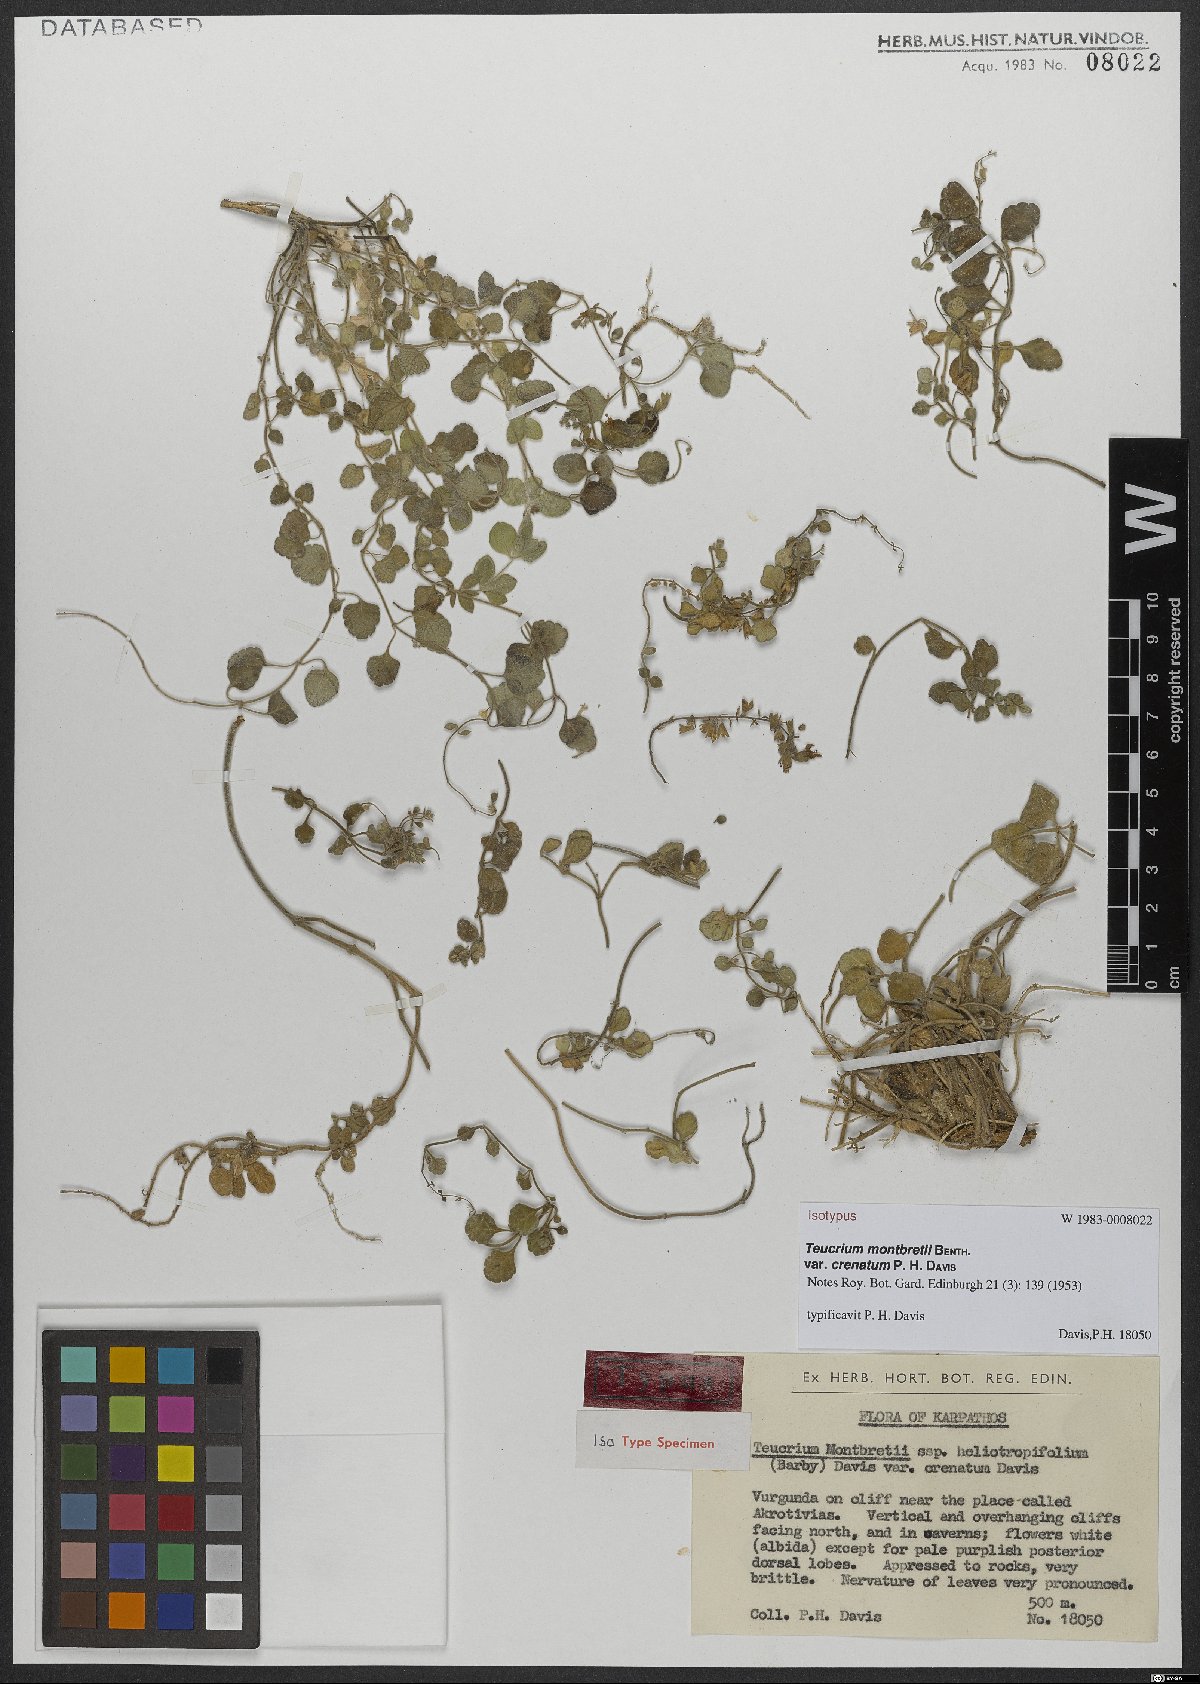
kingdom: Plantae
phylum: Tracheophyta
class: Magnoliopsida
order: Lamiales
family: Lamiaceae
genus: Teucrium
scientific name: Teucrium montbretii
